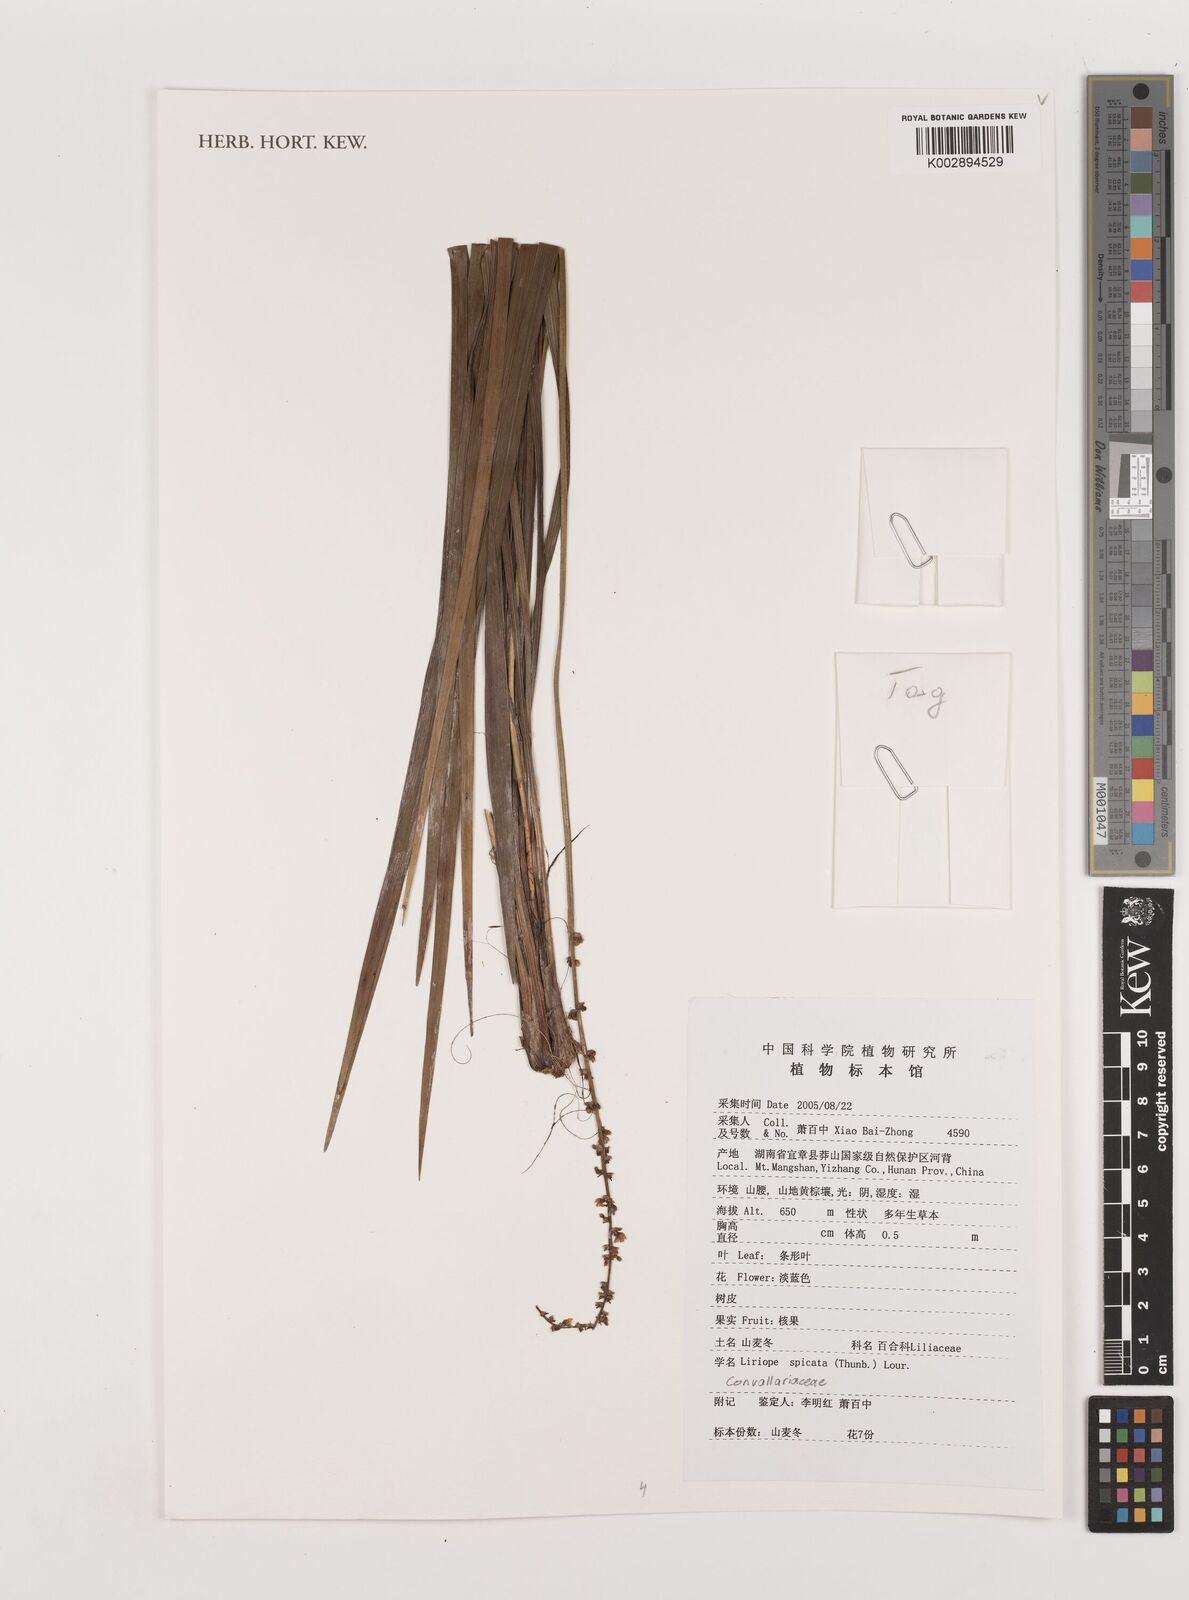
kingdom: Plantae
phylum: Tracheophyta
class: Liliopsida
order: Asparagales
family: Asparagaceae
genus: Liriope
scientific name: Liriope spicata
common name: Creeping liriope
